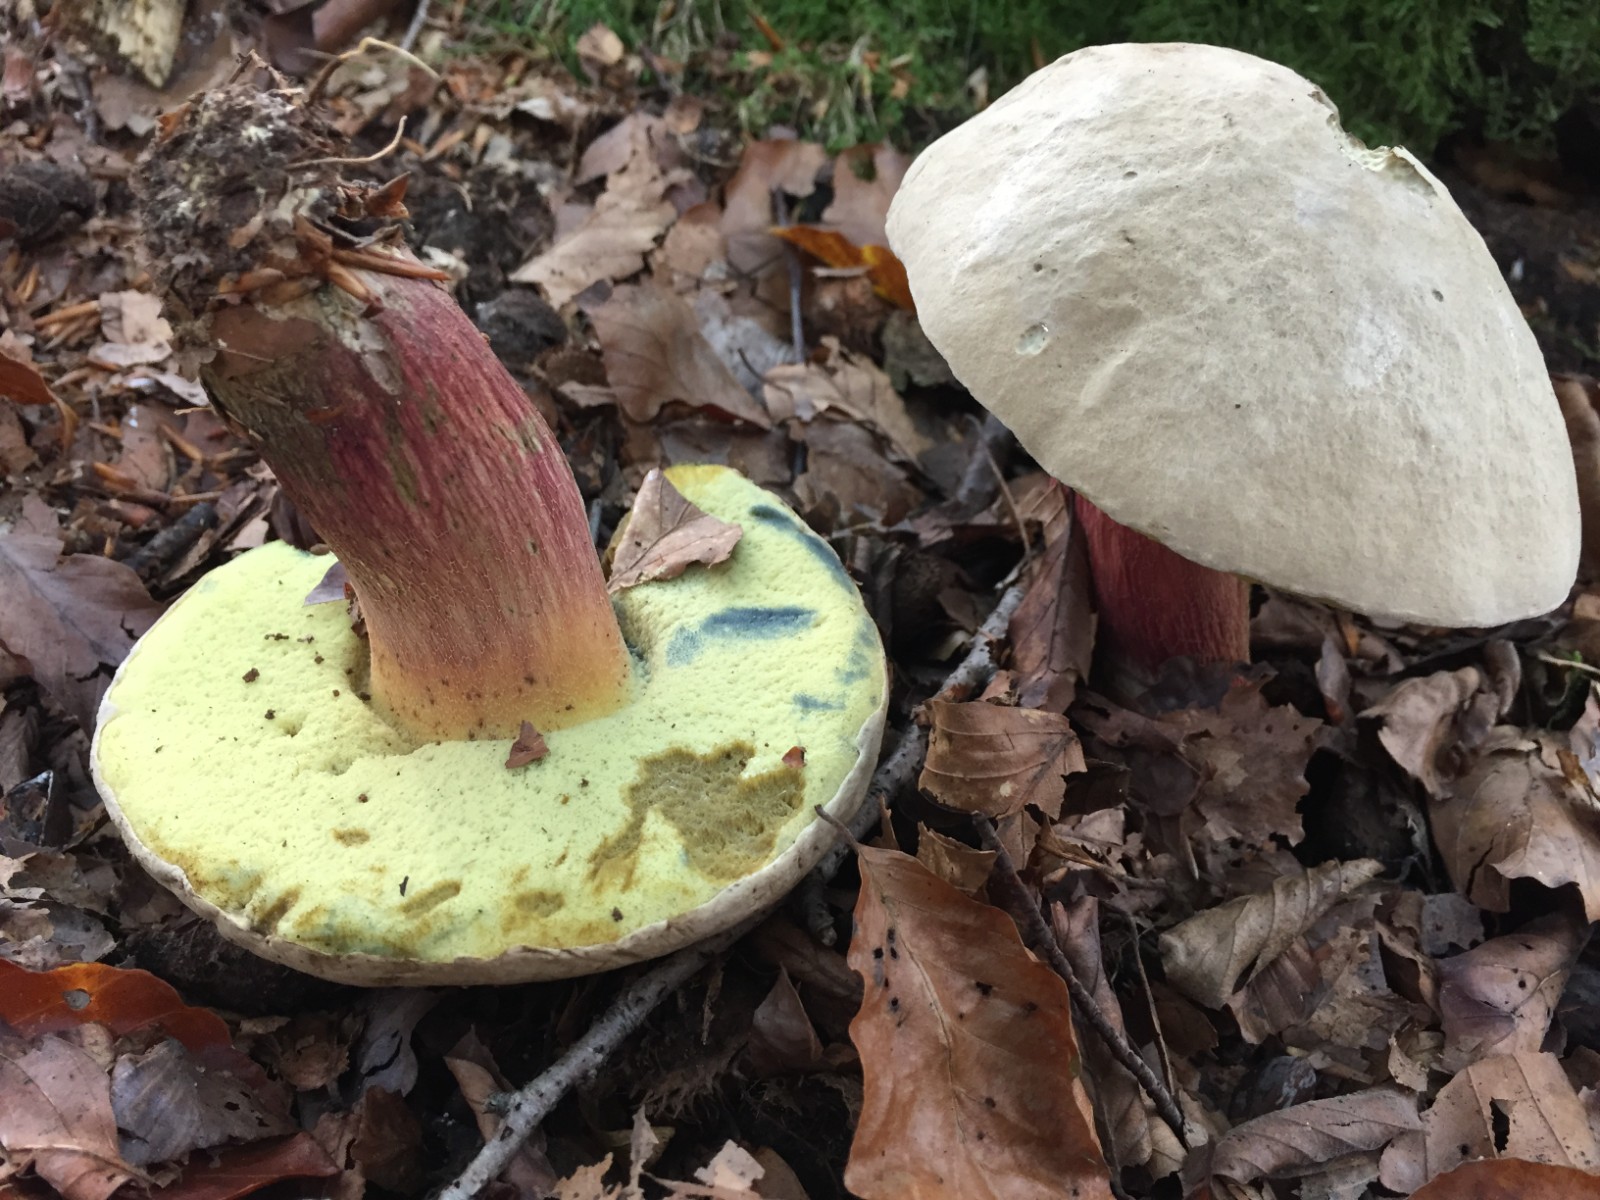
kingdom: Fungi
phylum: Basidiomycota
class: Agaricomycetes
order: Boletales
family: Boletaceae
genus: Caloboletus
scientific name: Caloboletus calopus
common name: skønfodet rørhat
